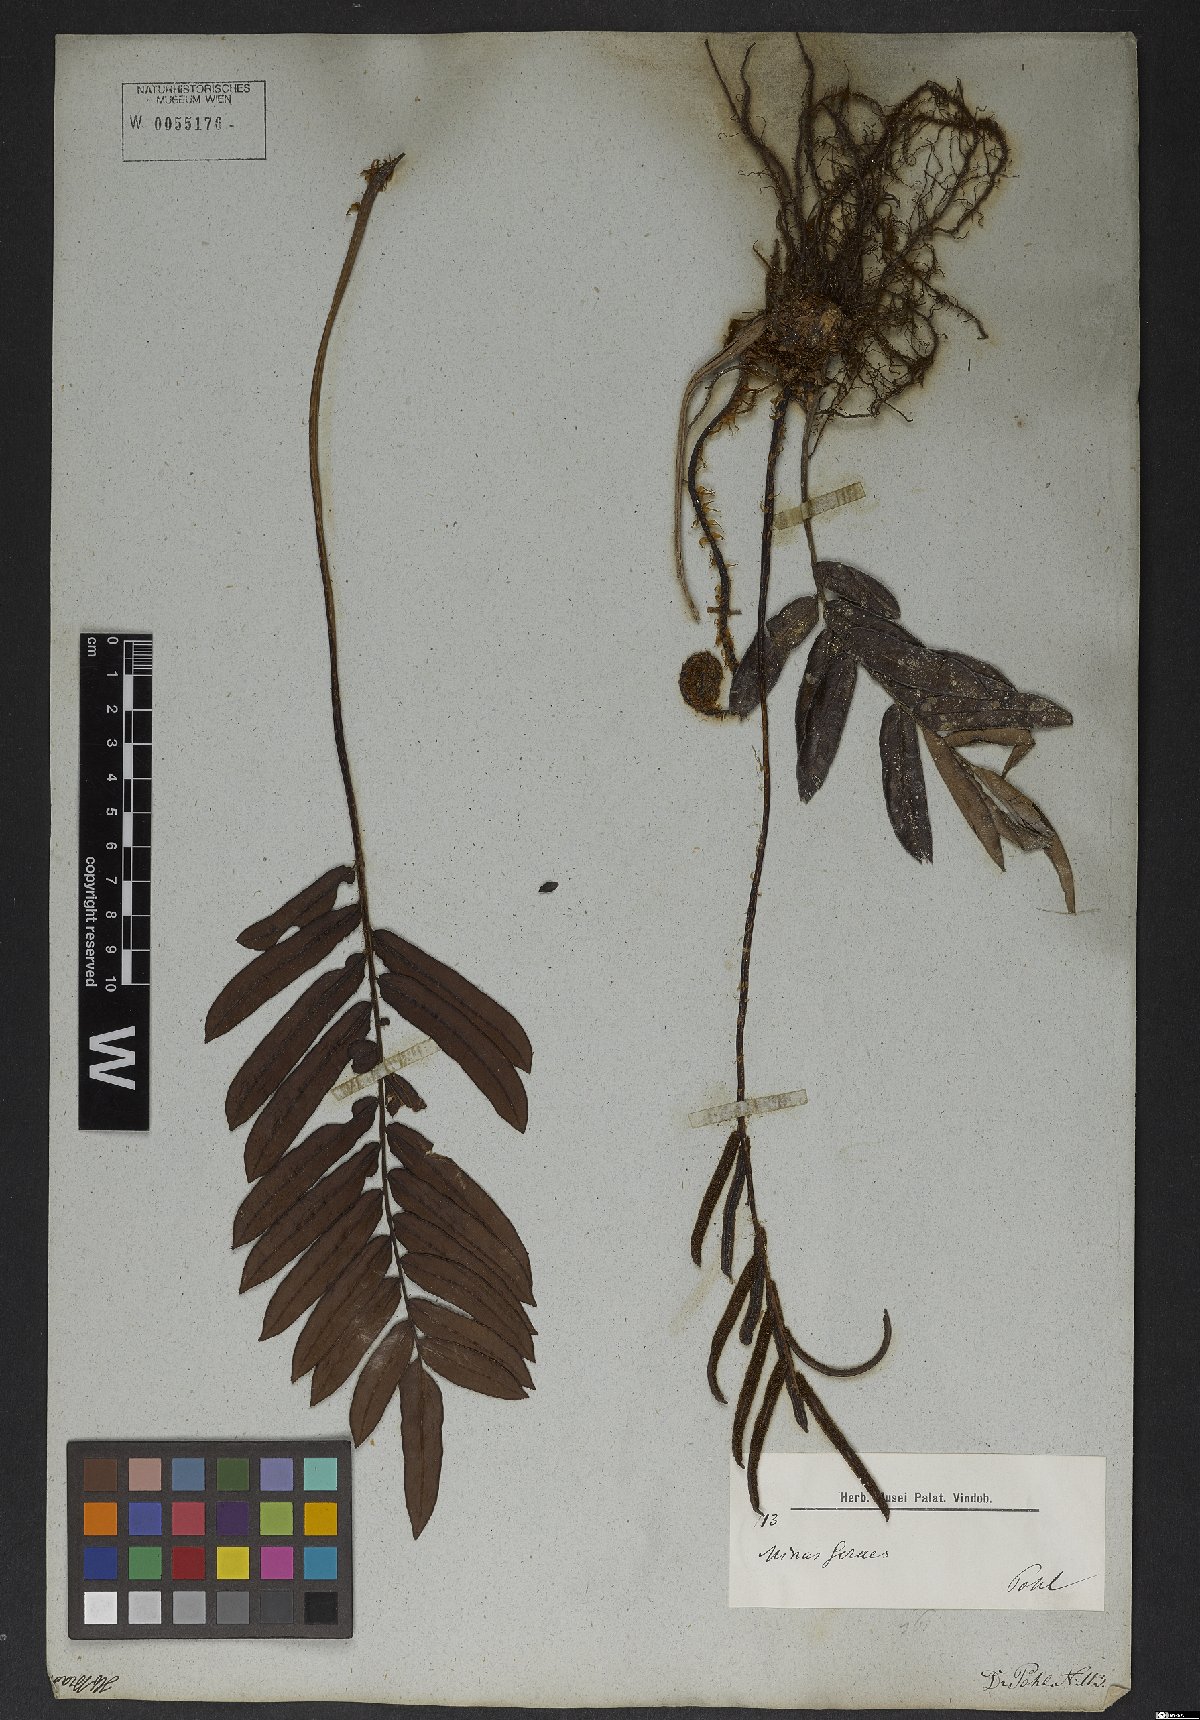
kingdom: Plantae
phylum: Tracheophyta
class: Polypodiopsida
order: Polypodiales
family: Blechnaceae
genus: Blechnum
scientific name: Blechnum
